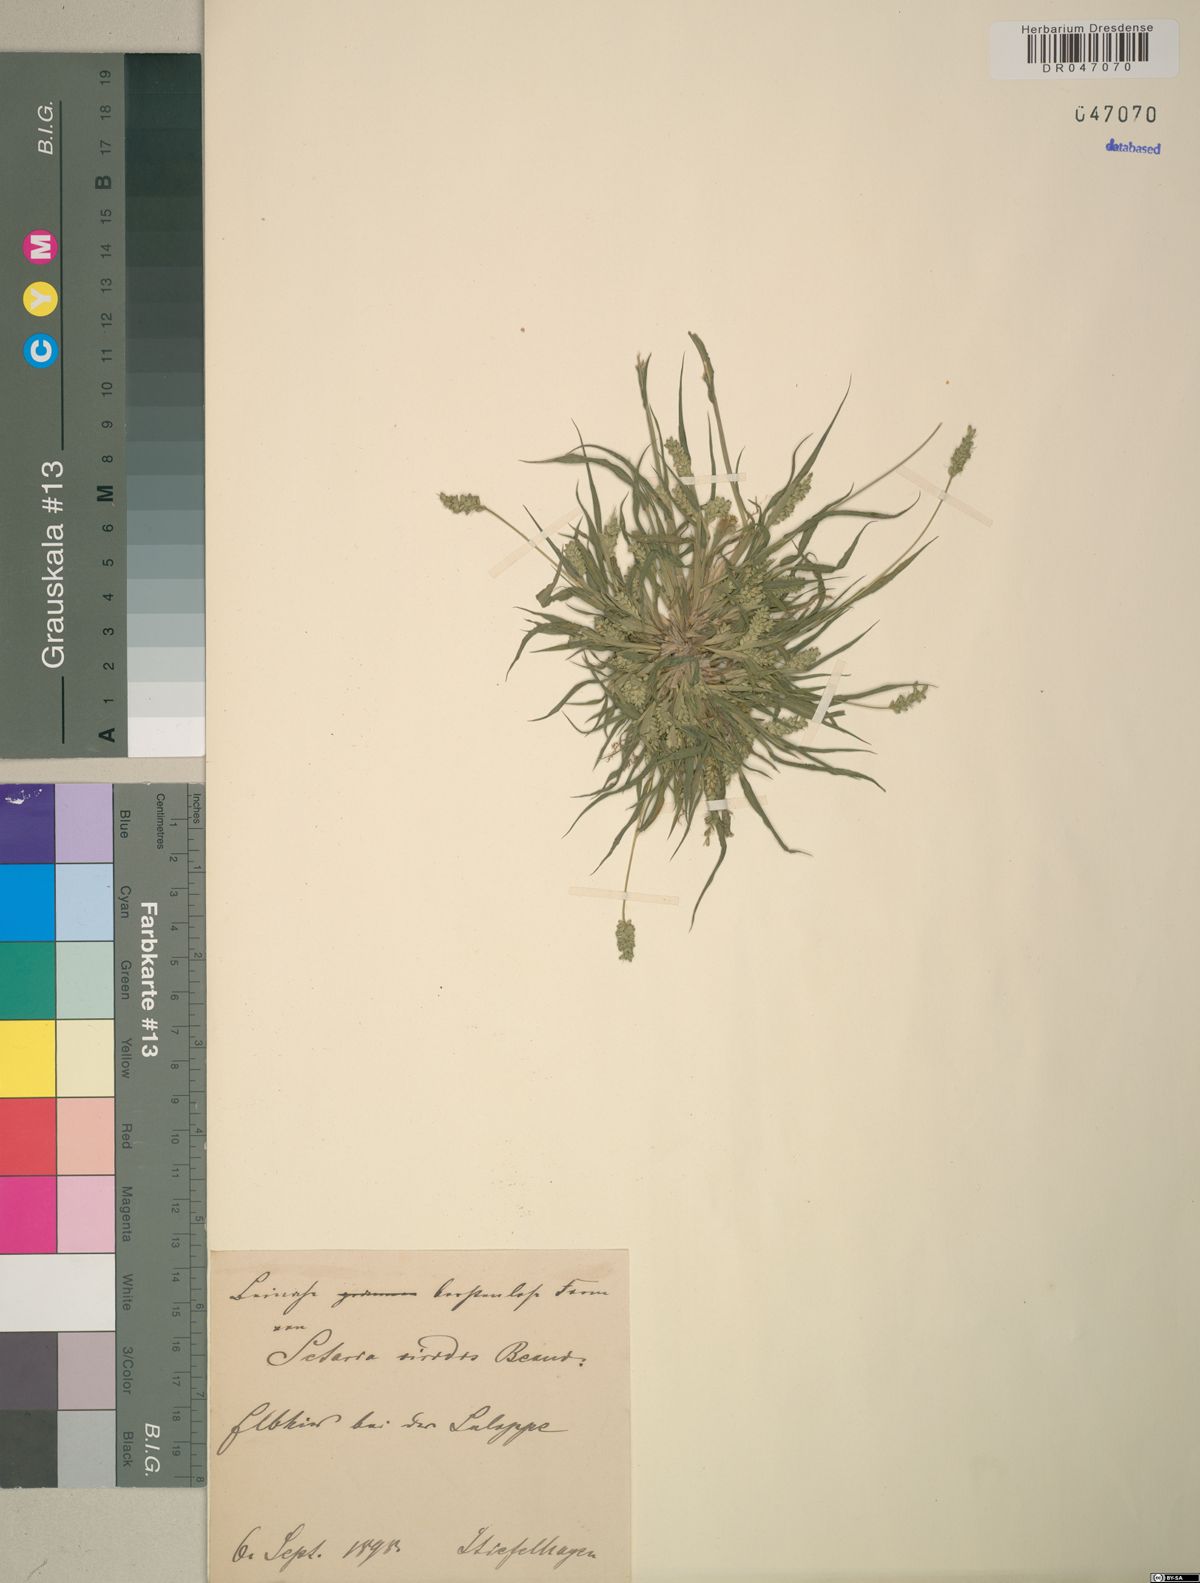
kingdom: Plantae
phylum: Tracheophyta
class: Liliopsida
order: Poales
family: Poaceae
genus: Setaria
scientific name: Setaria viridis
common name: Green bristlegrass
